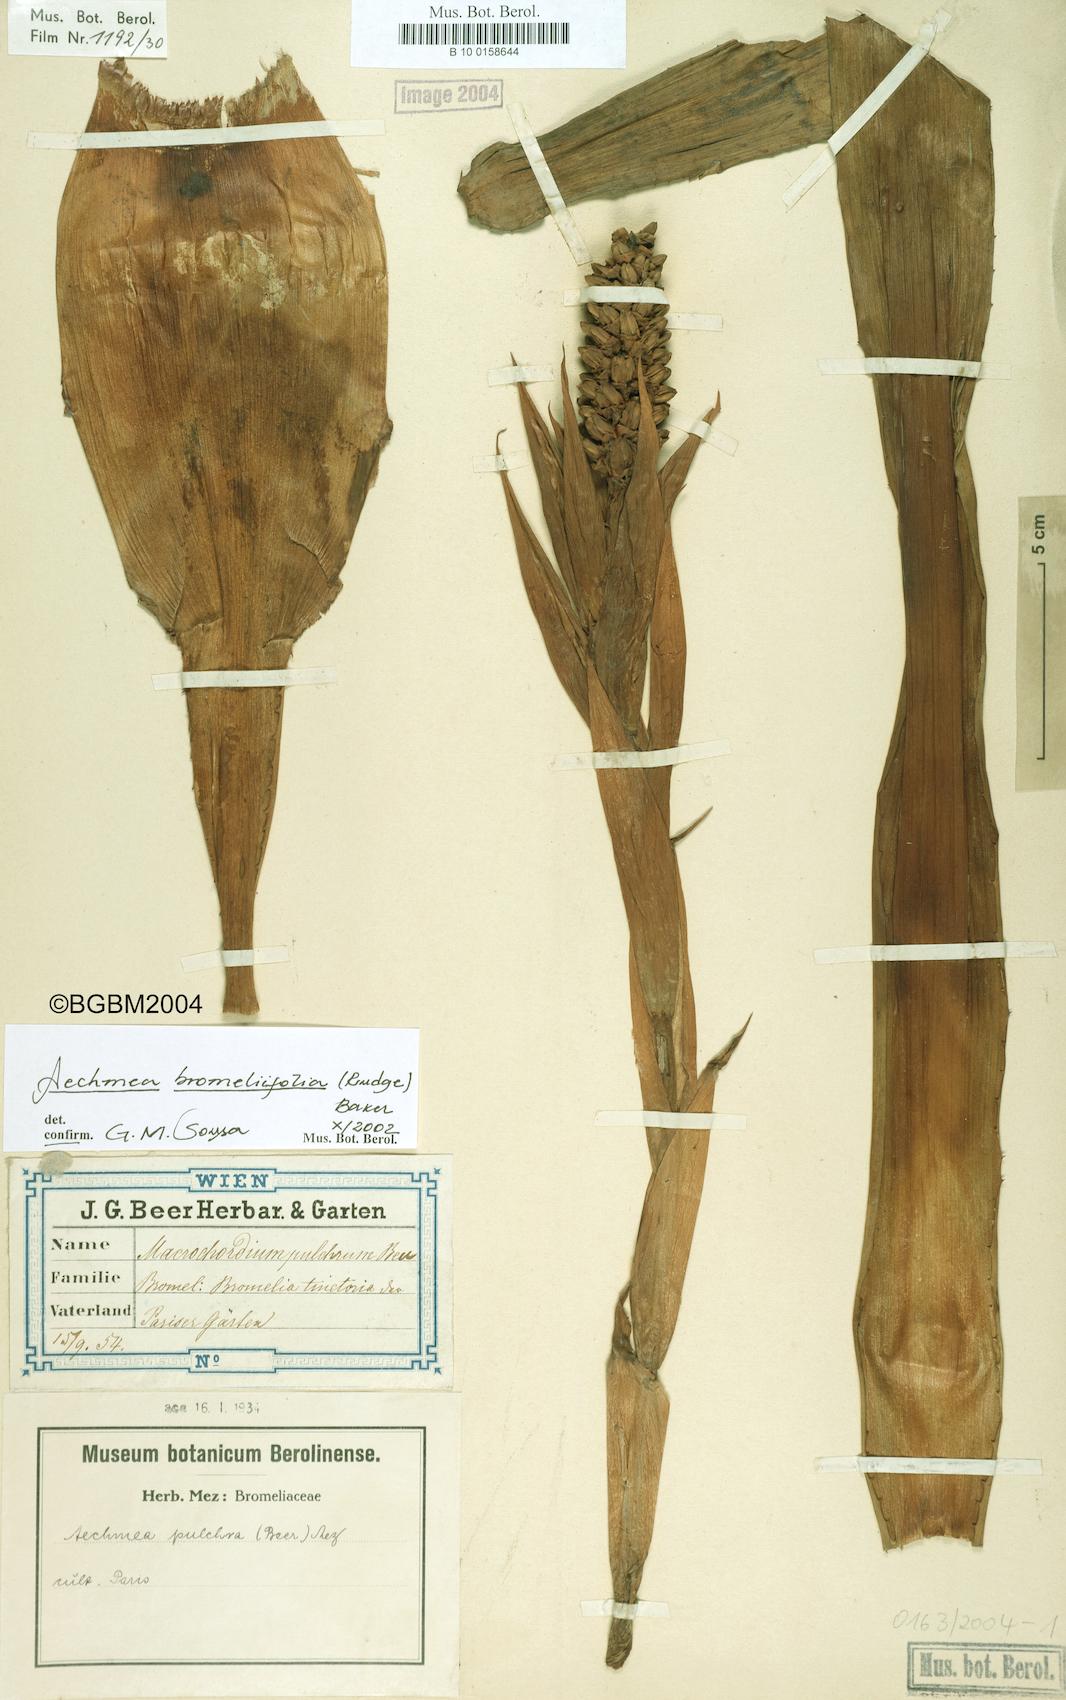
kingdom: Plantae
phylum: Tracheophyta
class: Liliopsida
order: Poales
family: Bromeliaceae
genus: Aechmea
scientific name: Aechmea bromeliifolia
